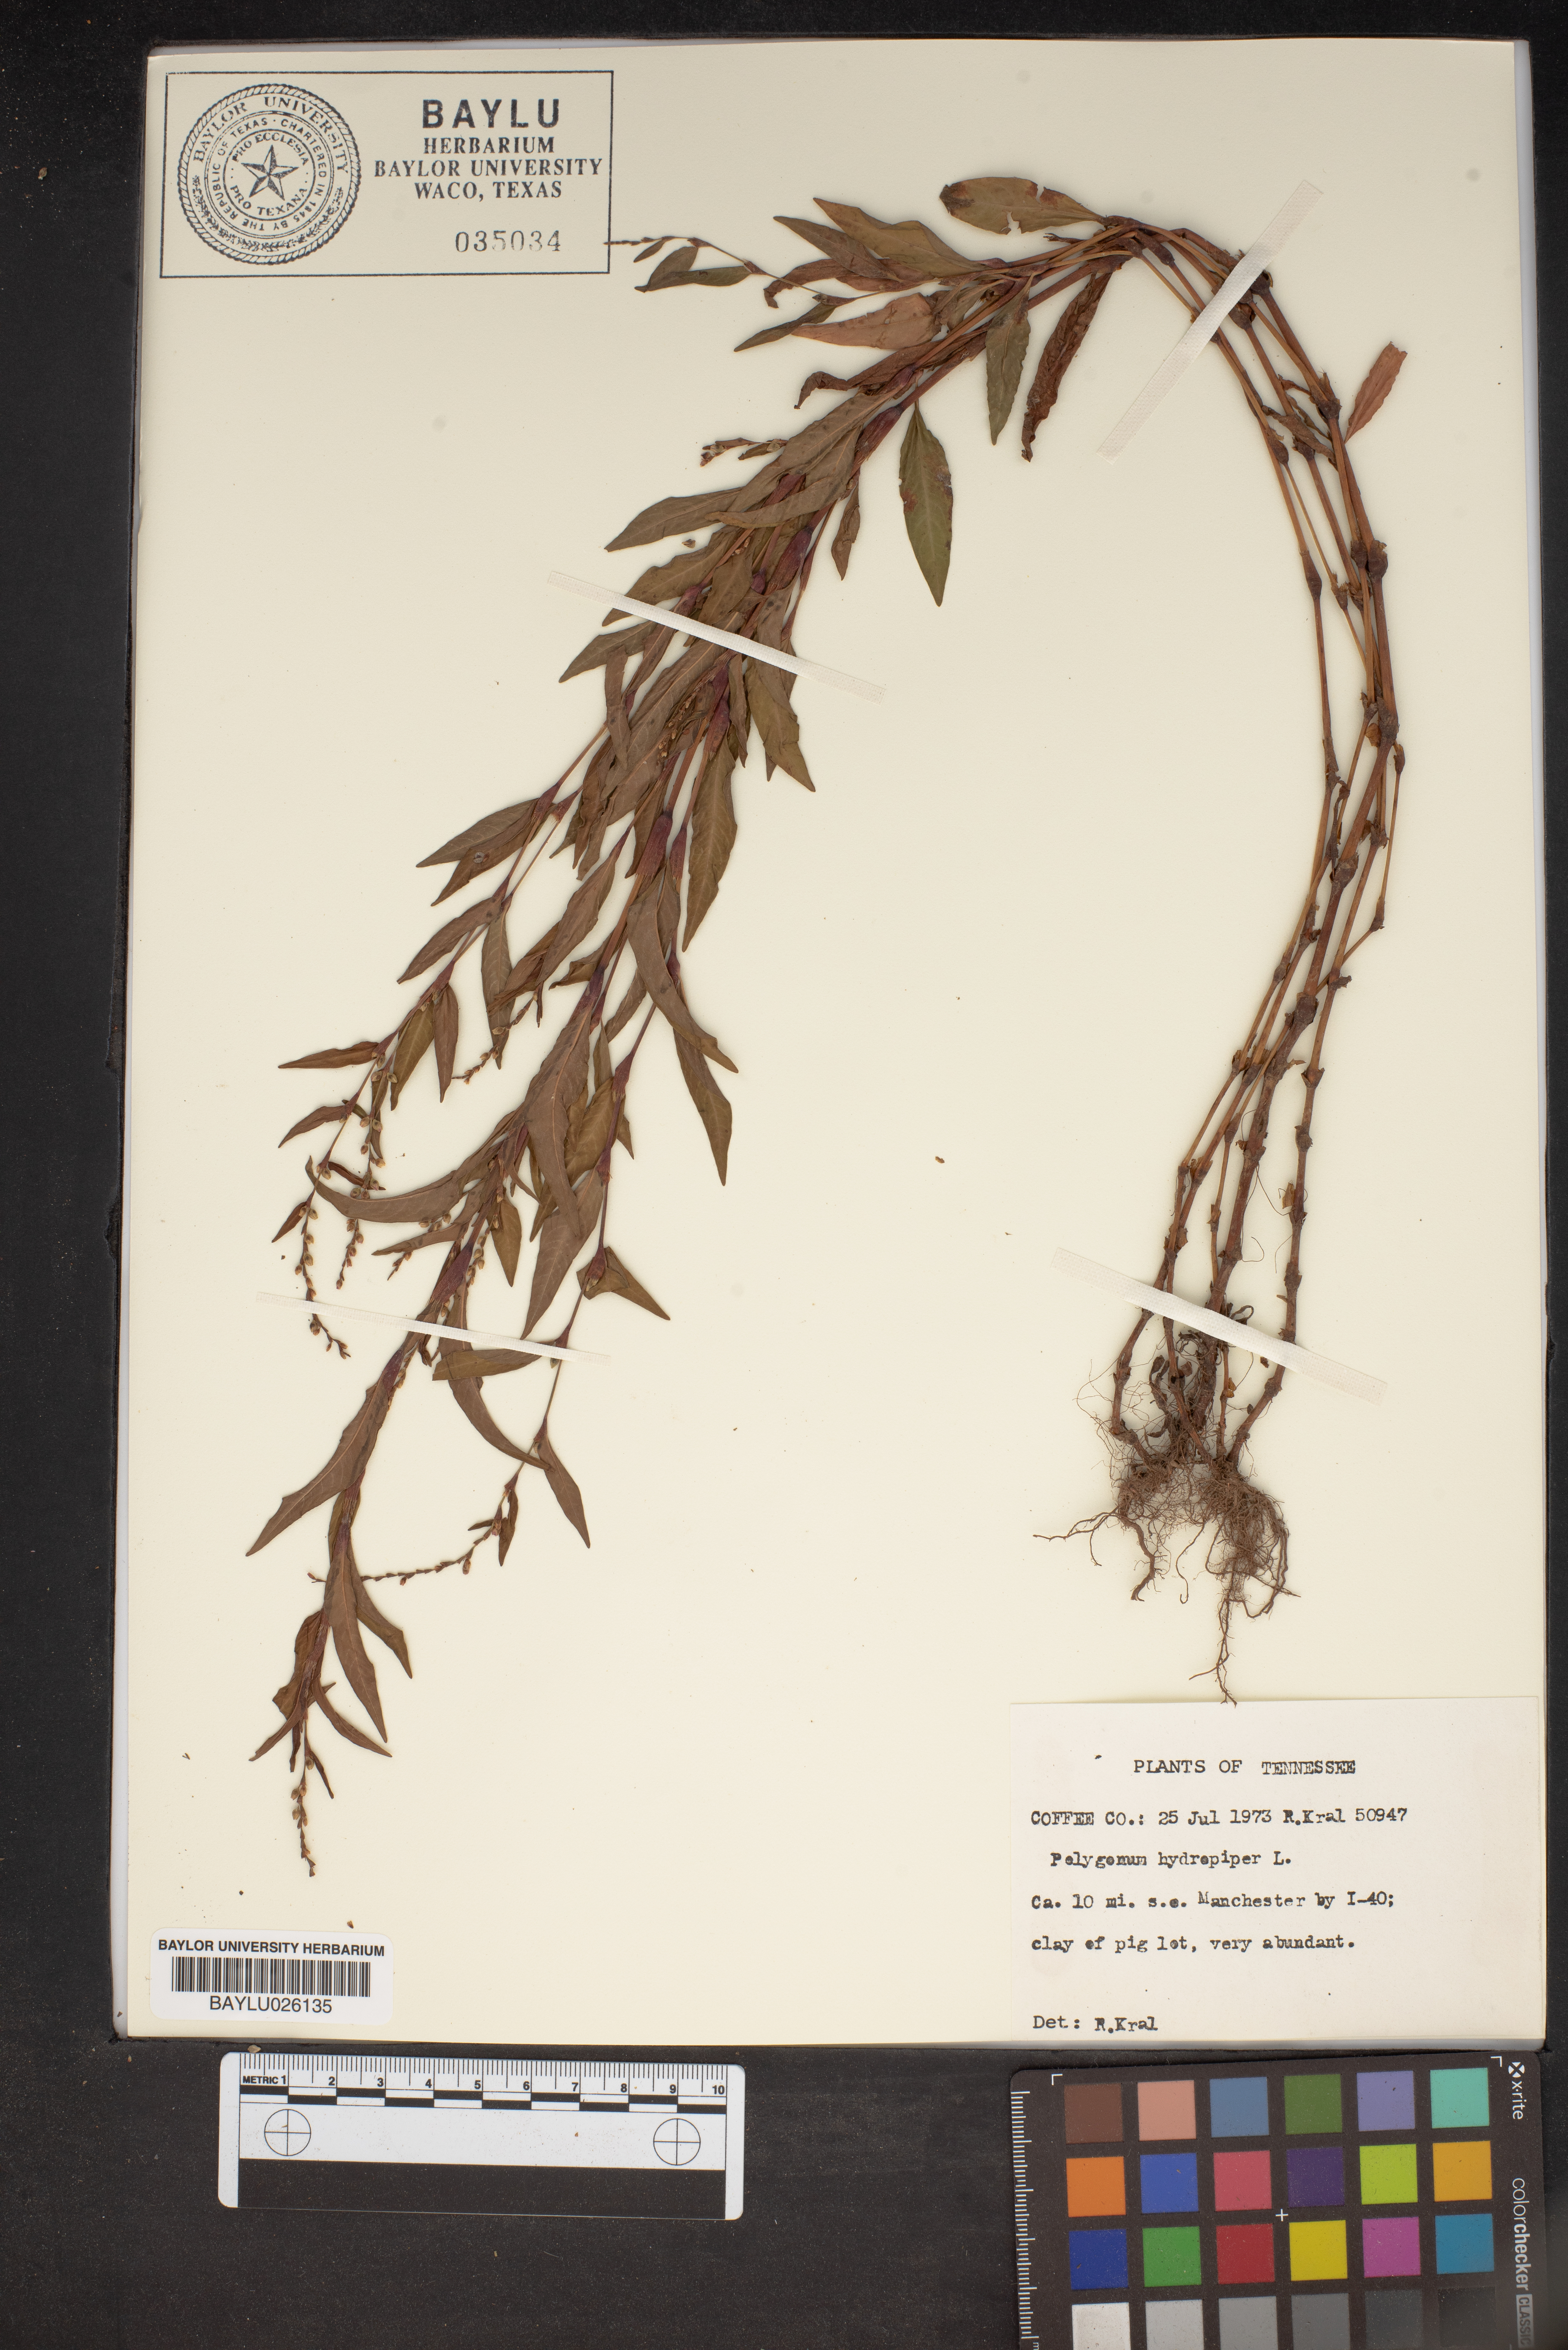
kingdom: Plantae
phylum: Tracheophyta
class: Magnoliopsida
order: Caryophyllales
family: Polygonaceae
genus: Persicaria
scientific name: Persicaria hydropiper
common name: Water-pepper
